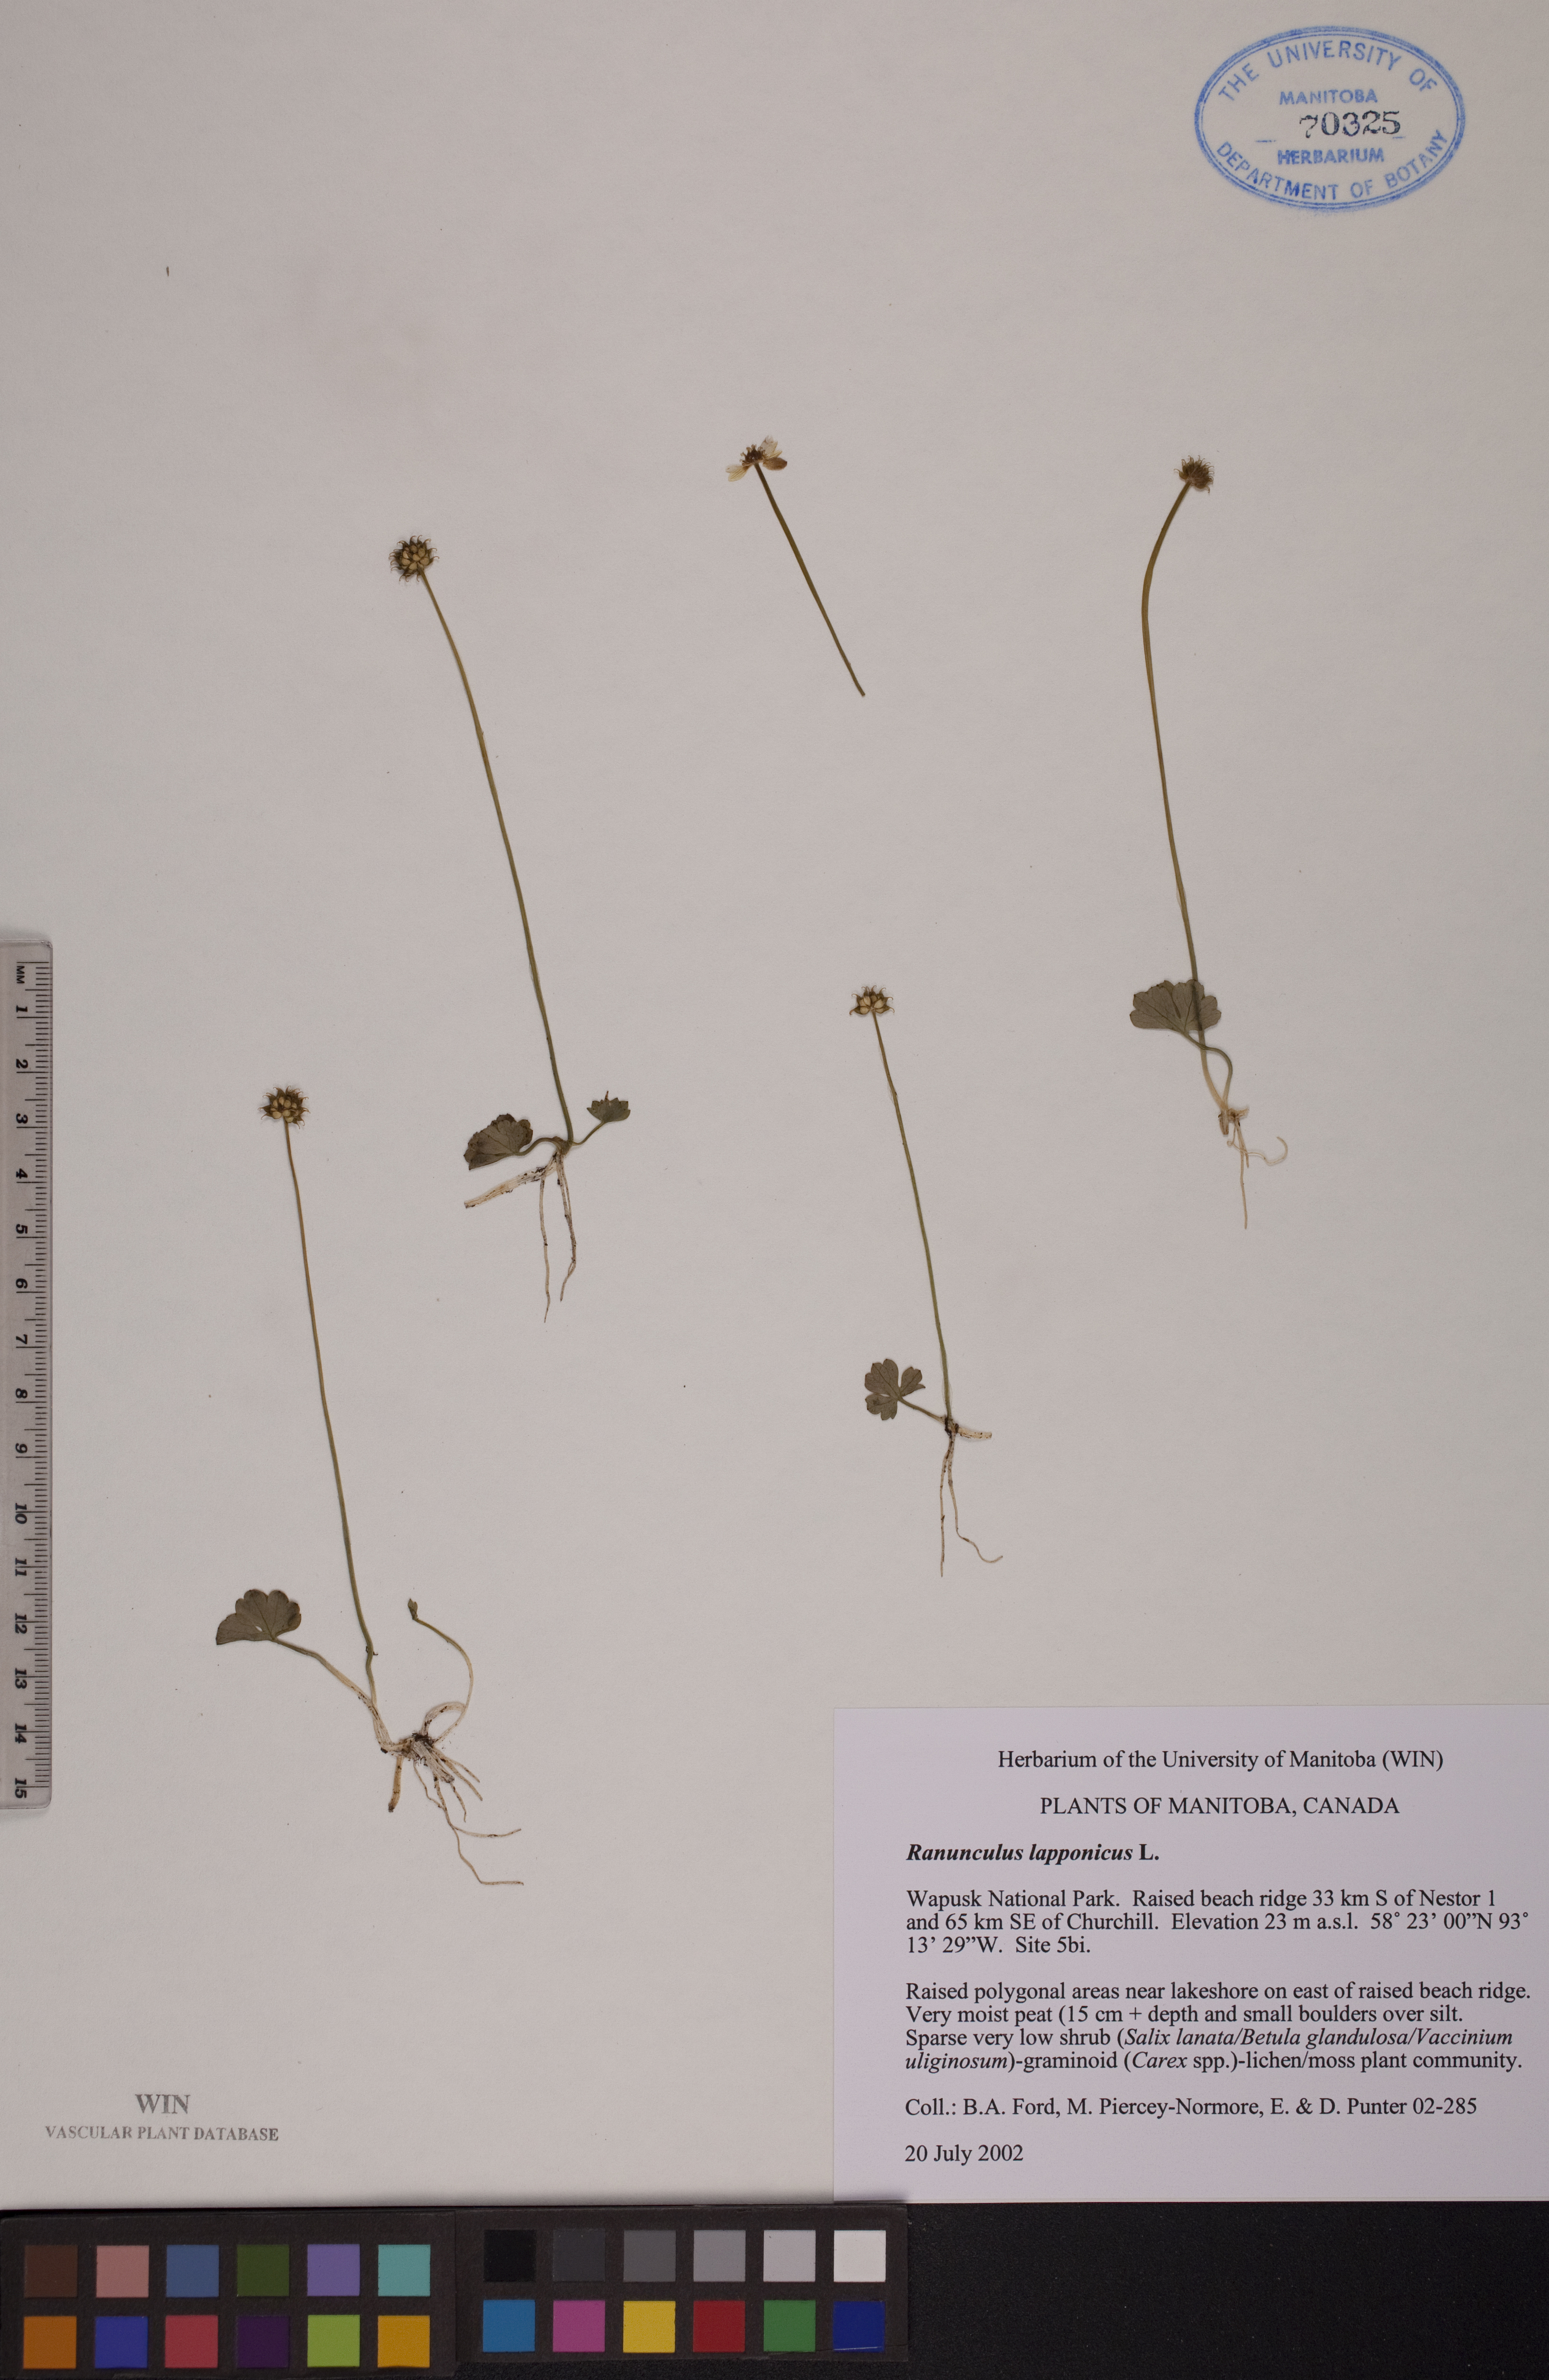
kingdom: Plantae
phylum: Tracheophyta
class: Magnoliopsida
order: Ranunculales
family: Ranunculaceae
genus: Coptidium
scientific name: Coptidium lapponicum
